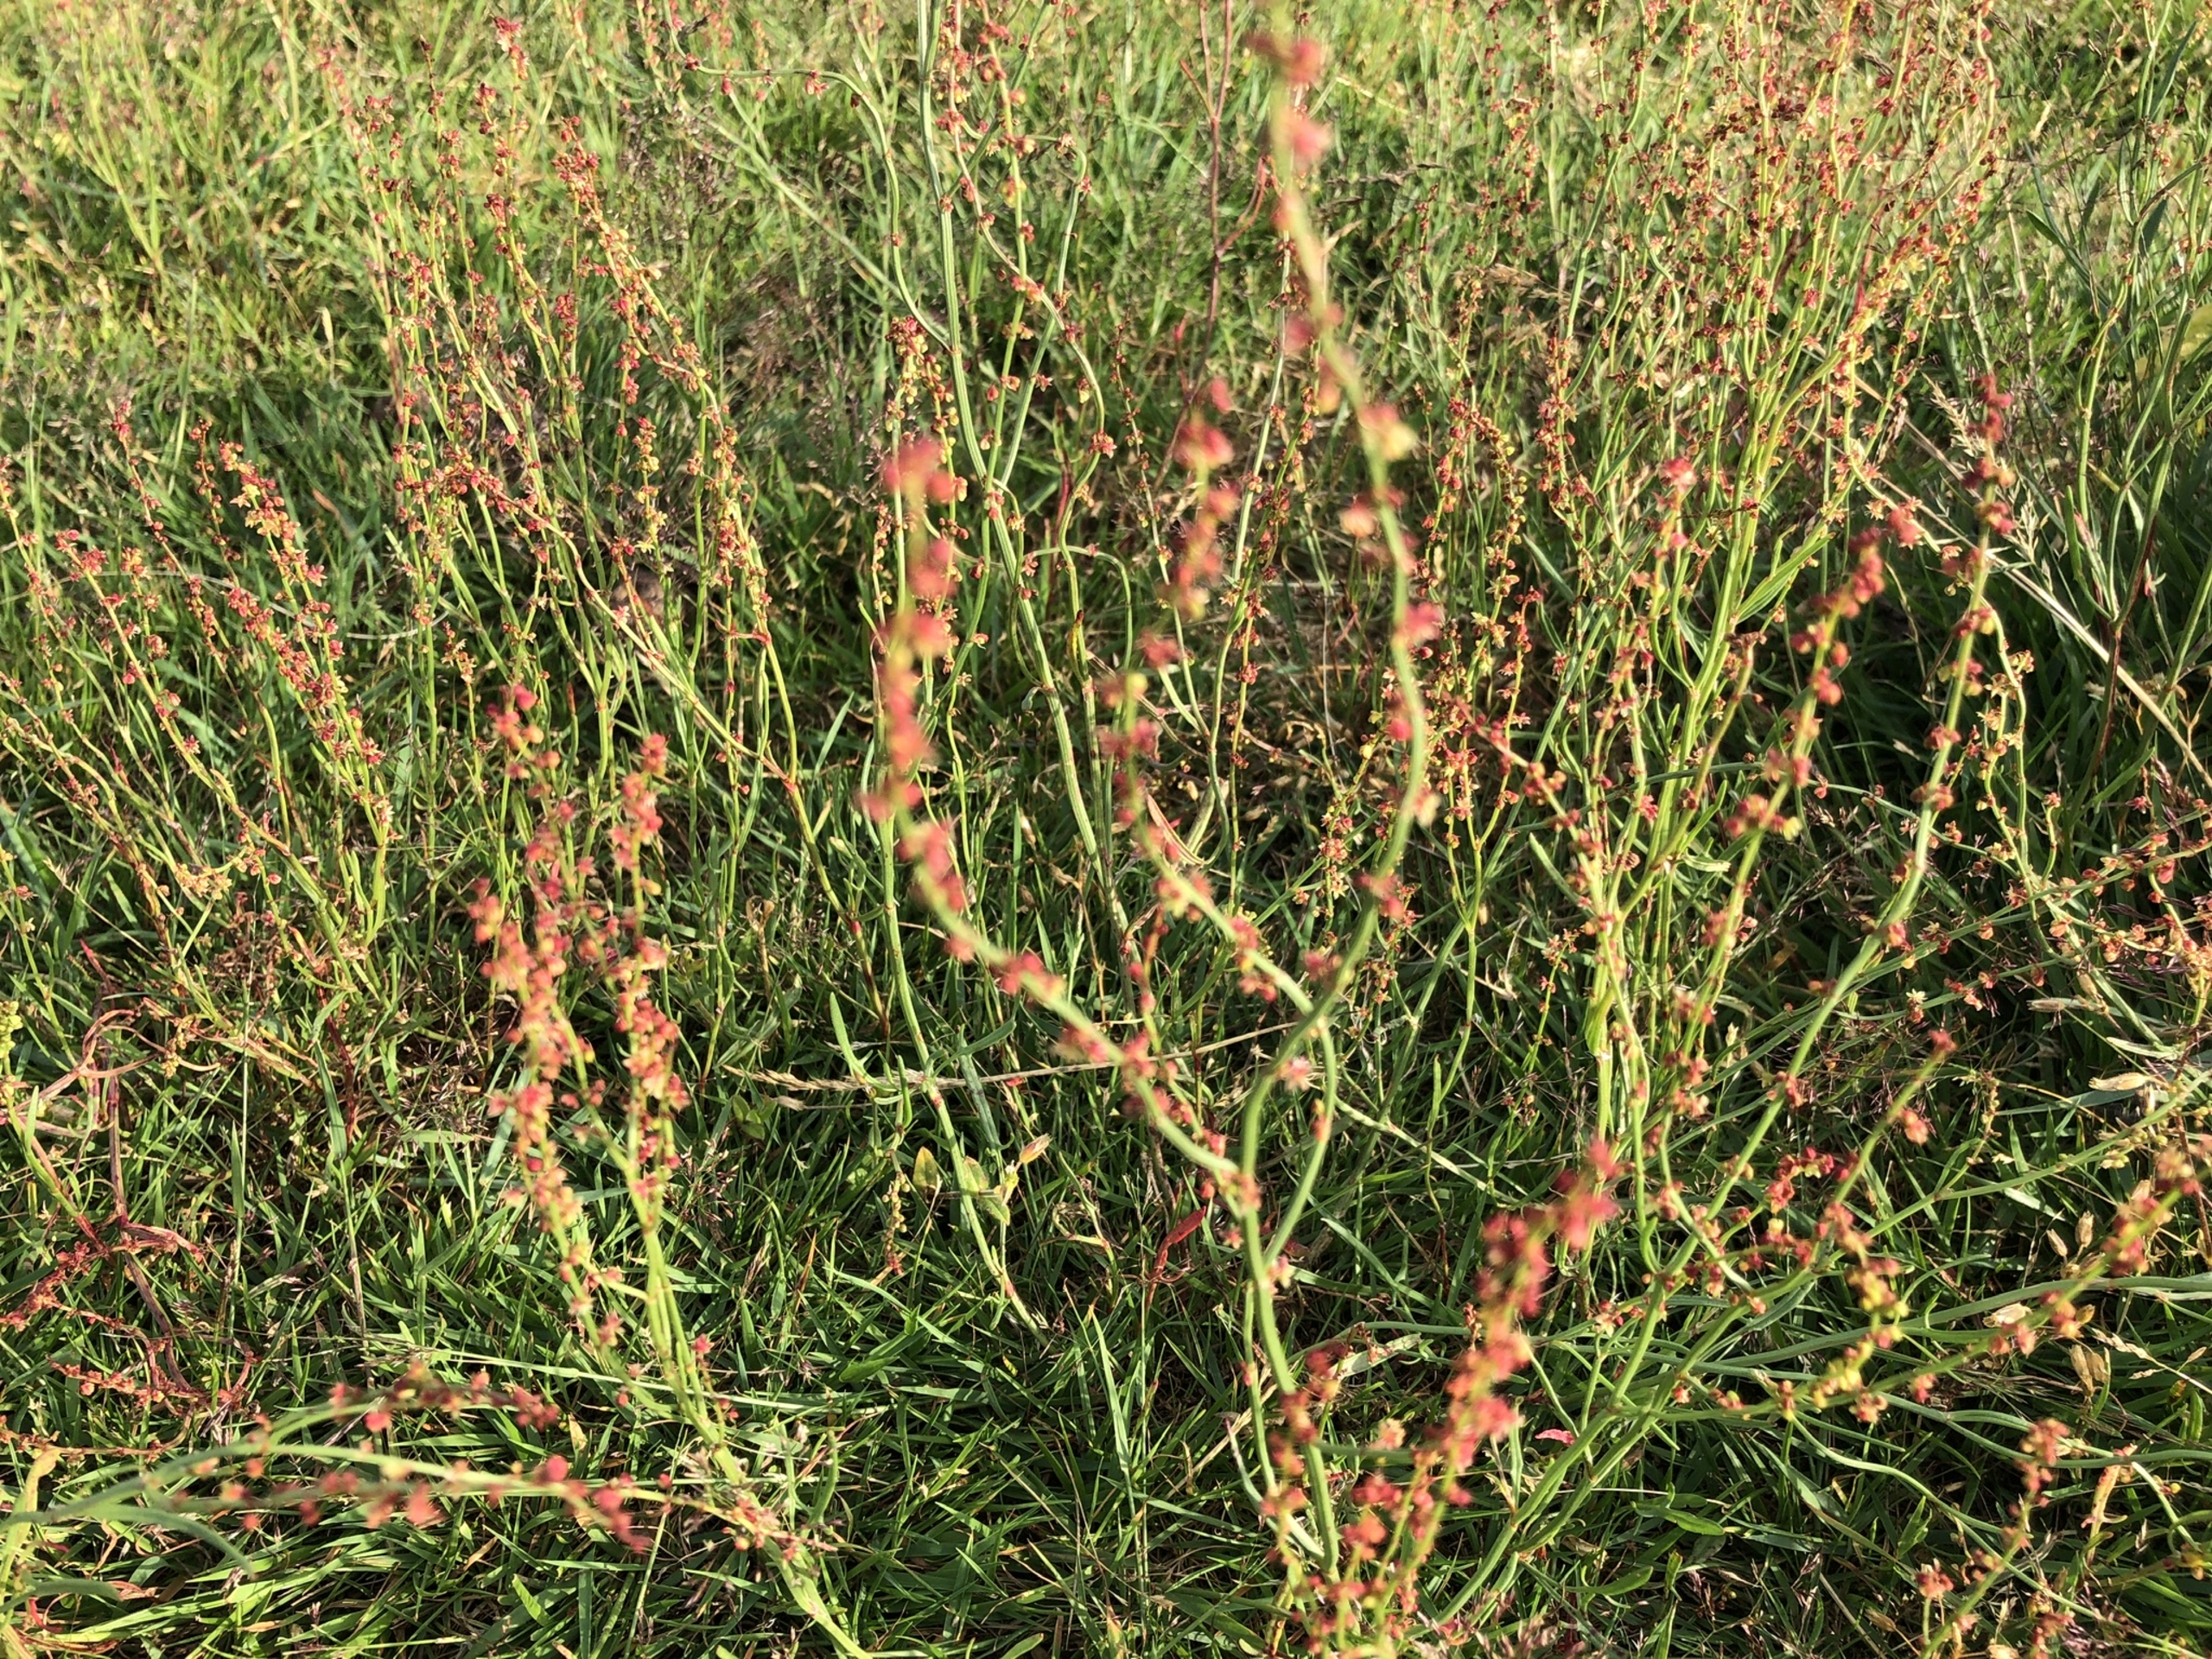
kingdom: Plantae
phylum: Tracheophyta
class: Magnoliopsida
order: Caryophyllales
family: Polygonaceae
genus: Rumex
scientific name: Rumex acetosella
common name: Rødknæ
